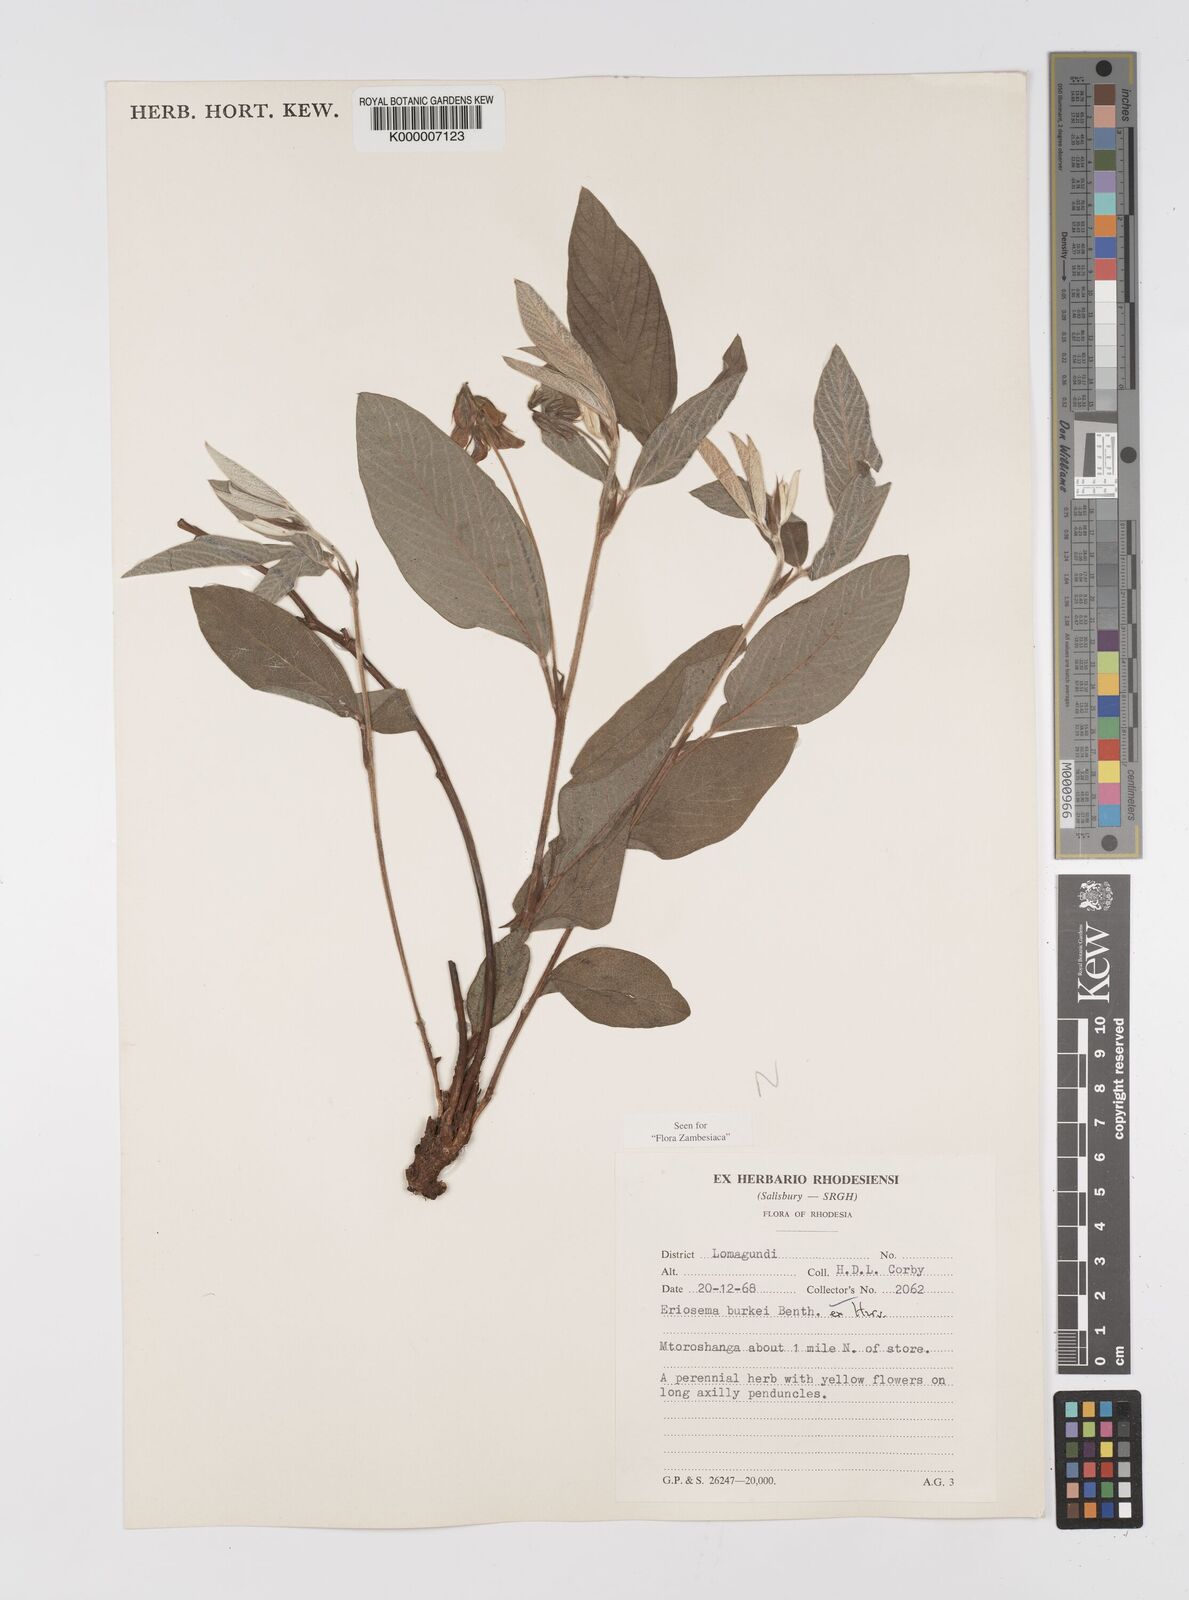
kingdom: Plantae
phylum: Tracheophyta
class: Magnoliopsida
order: Fabales
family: Fabaceae
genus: Eriosema
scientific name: Eriosema burkei
